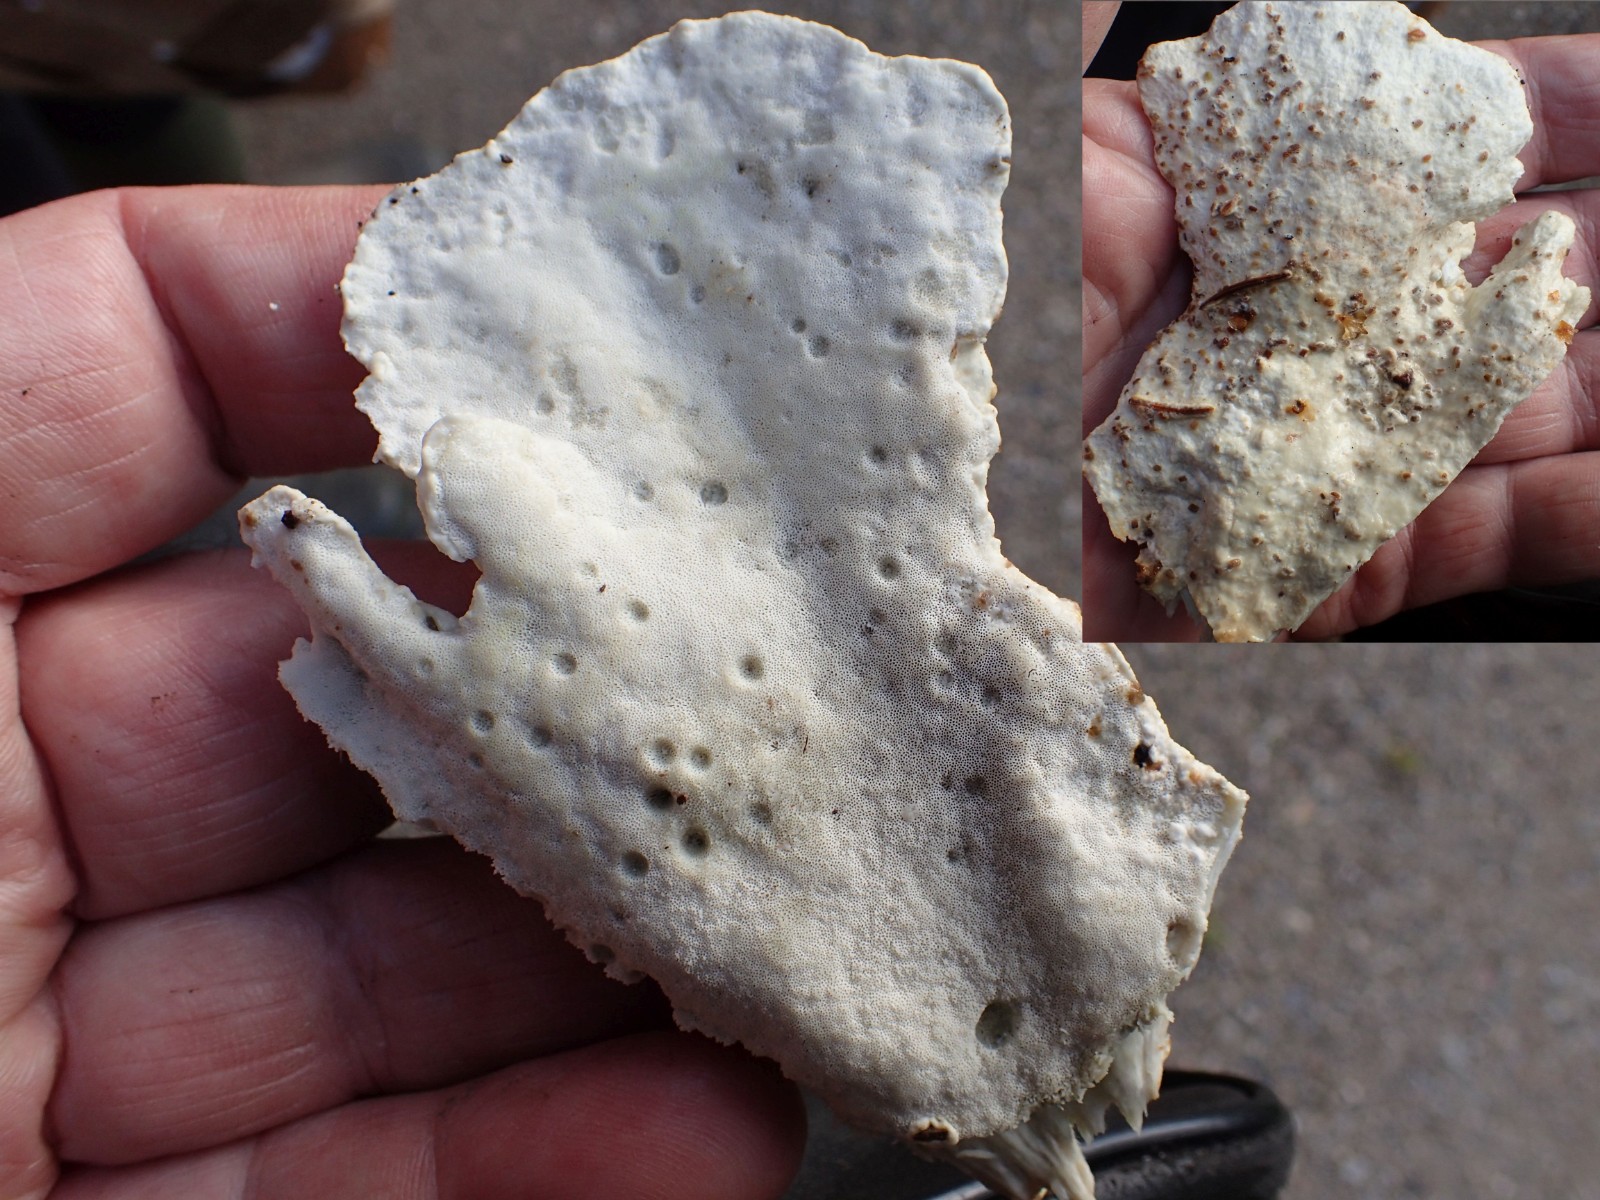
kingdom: Fungi
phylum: Basidiomycota
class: Agaricomycetes
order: Polyporales
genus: Calcipostia
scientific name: Calcipostia guttulata
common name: dråbe-kødporesvamp
